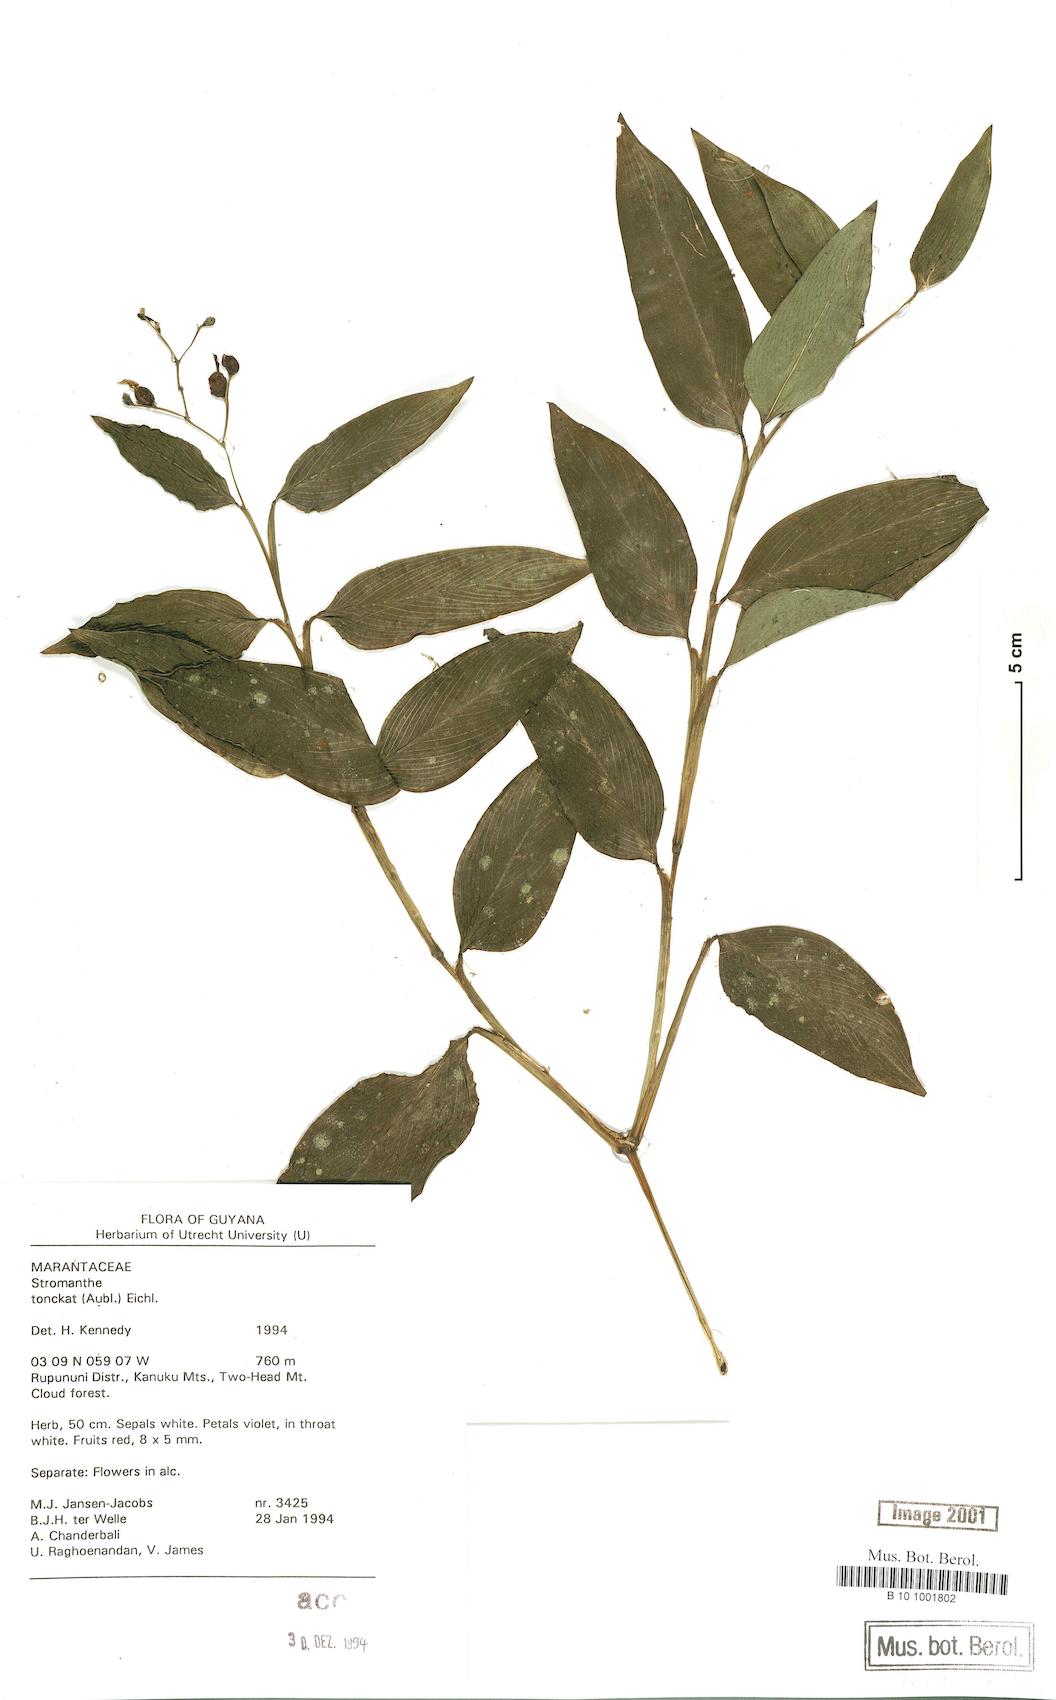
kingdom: Plantae
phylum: Tracheophyta
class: Liliopsida
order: Zingiberales
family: Marantaceae
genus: Stromanthe
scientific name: Stromanthe tonckat
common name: Stromanthe
